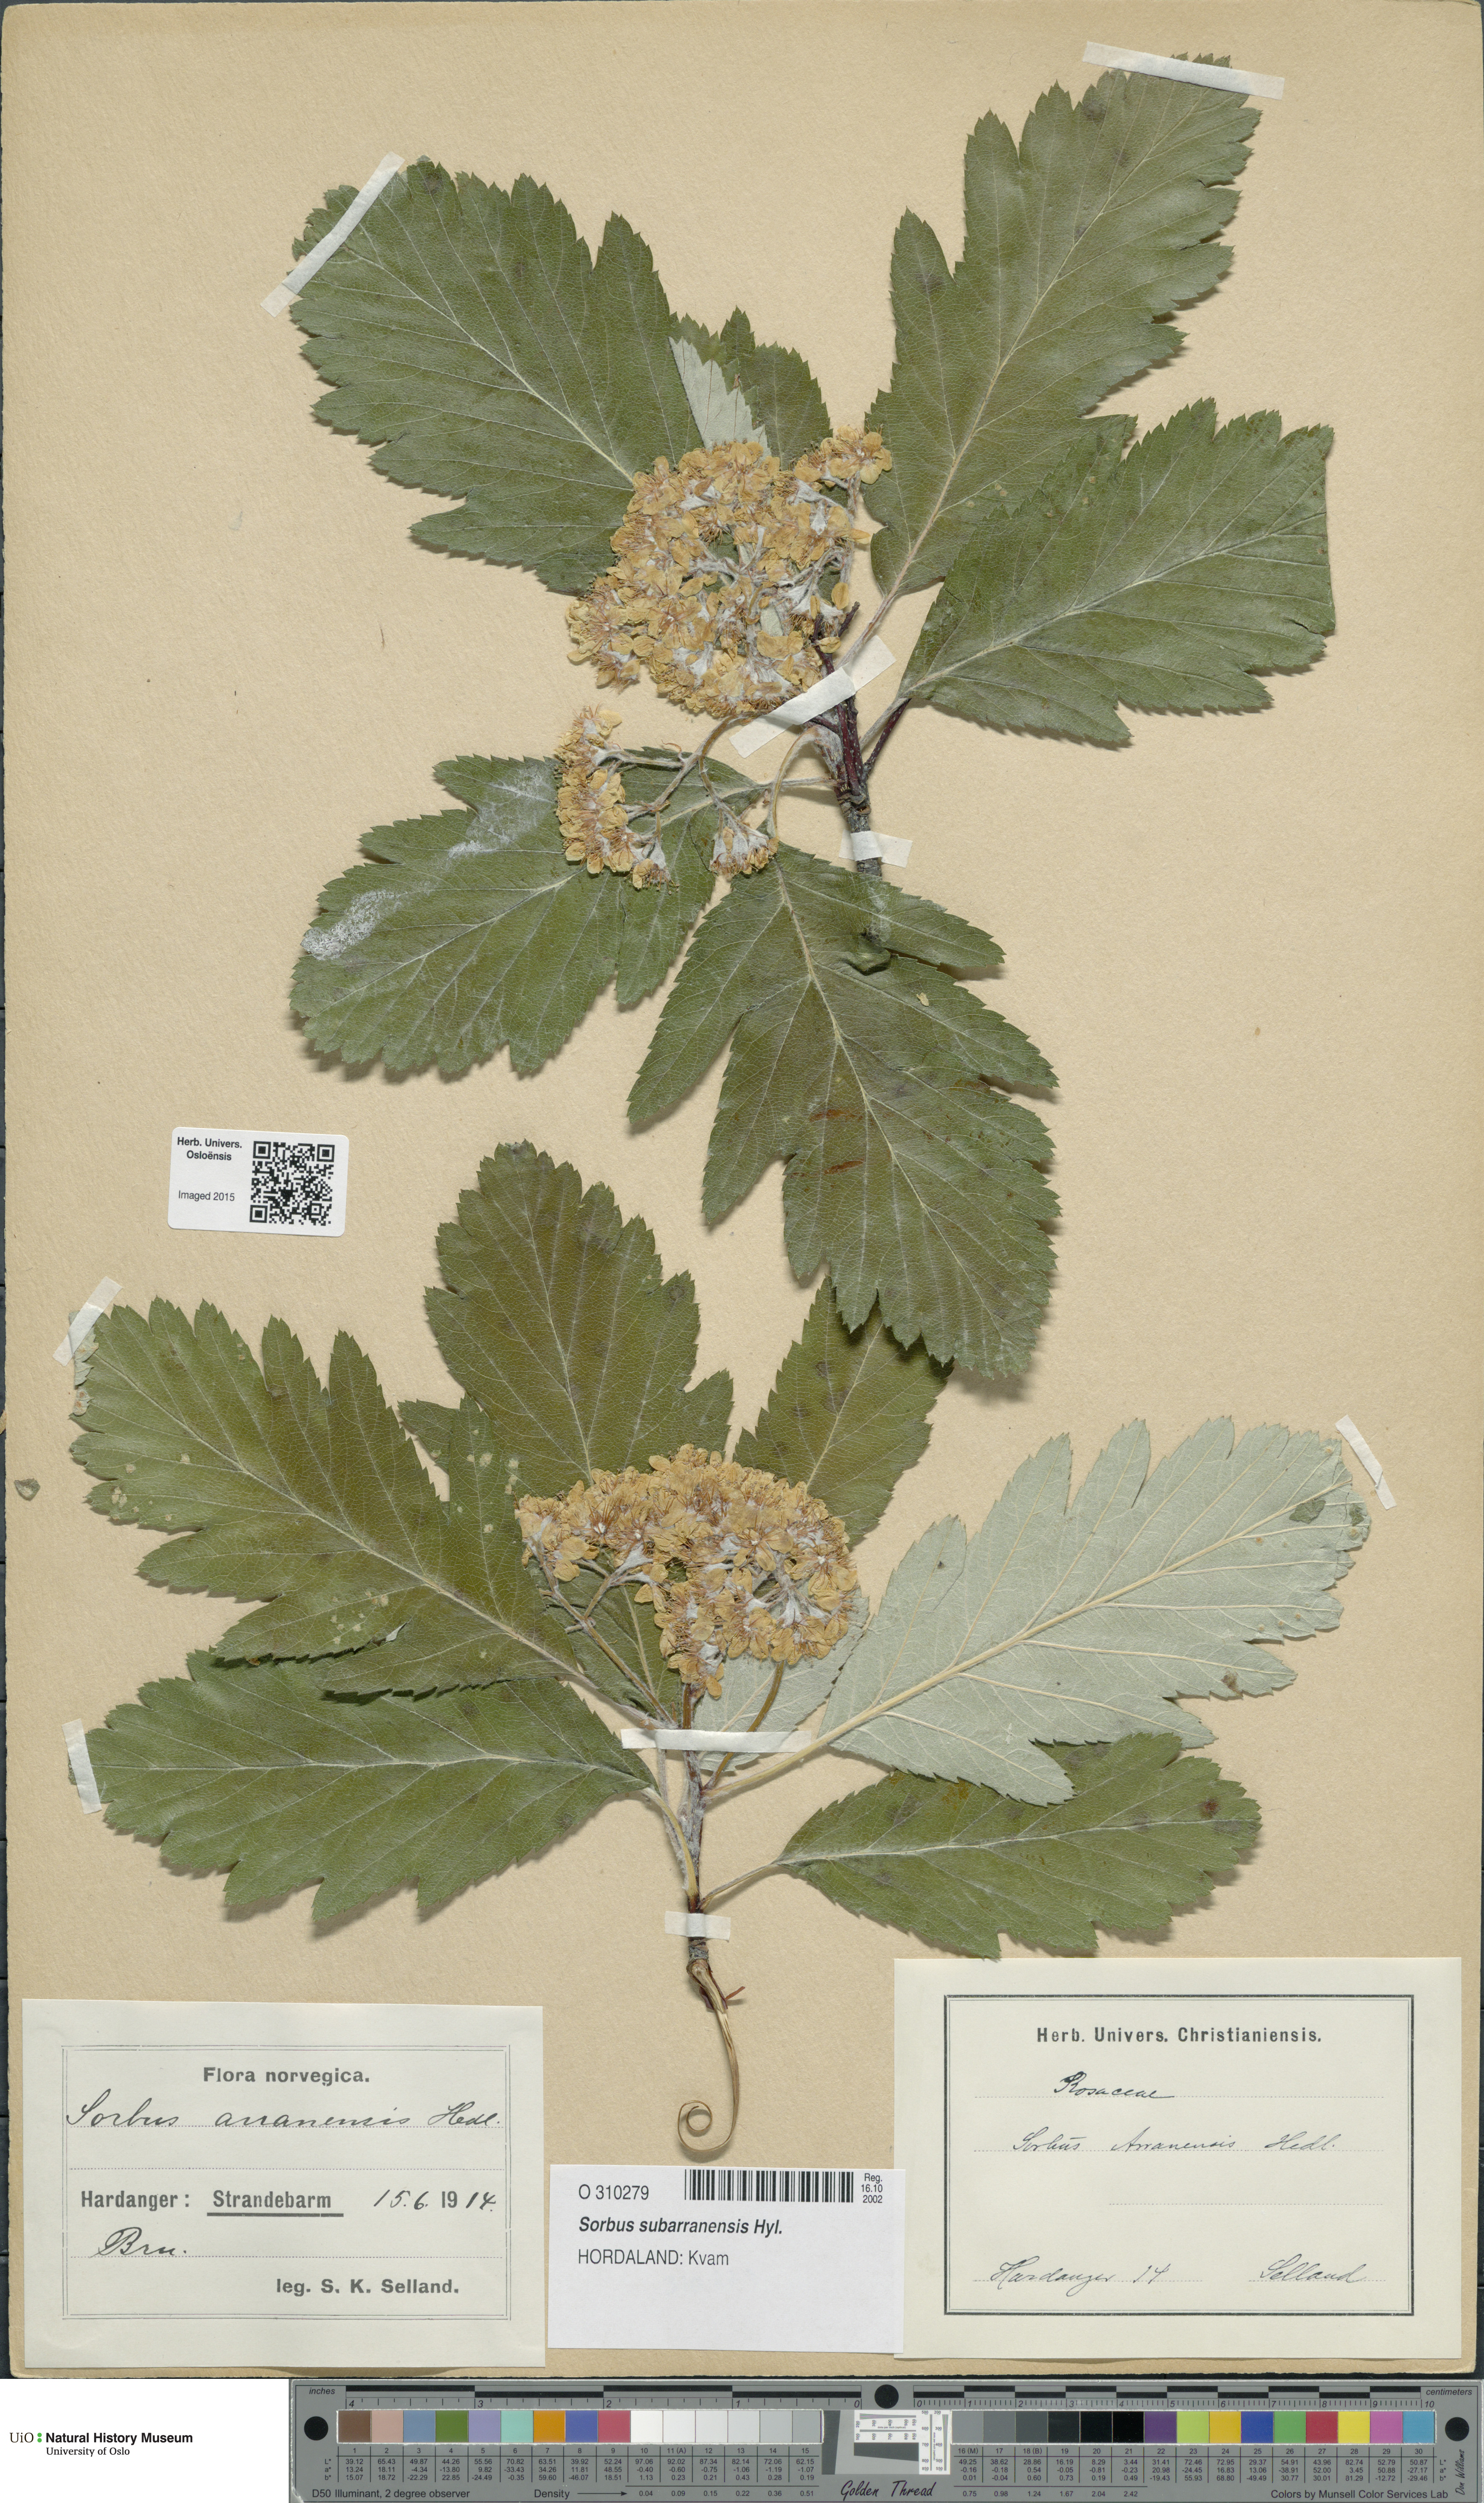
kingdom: Plantae
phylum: Tracheophyta
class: Magnoliopsida
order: Rosales
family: Rosaceae
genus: Hedlundia
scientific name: Hedlundia arranensis
